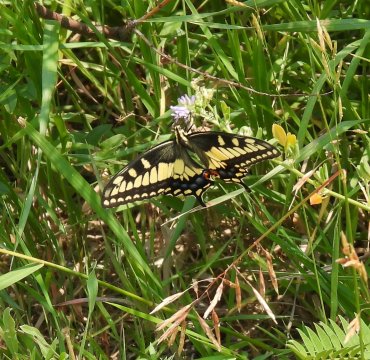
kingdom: Animalia
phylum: Arthropoda
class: Insecta
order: Lepidoptera
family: Papilionidae
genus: Papilio
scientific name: Papilio zelicaon
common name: Anise Swallowtail
